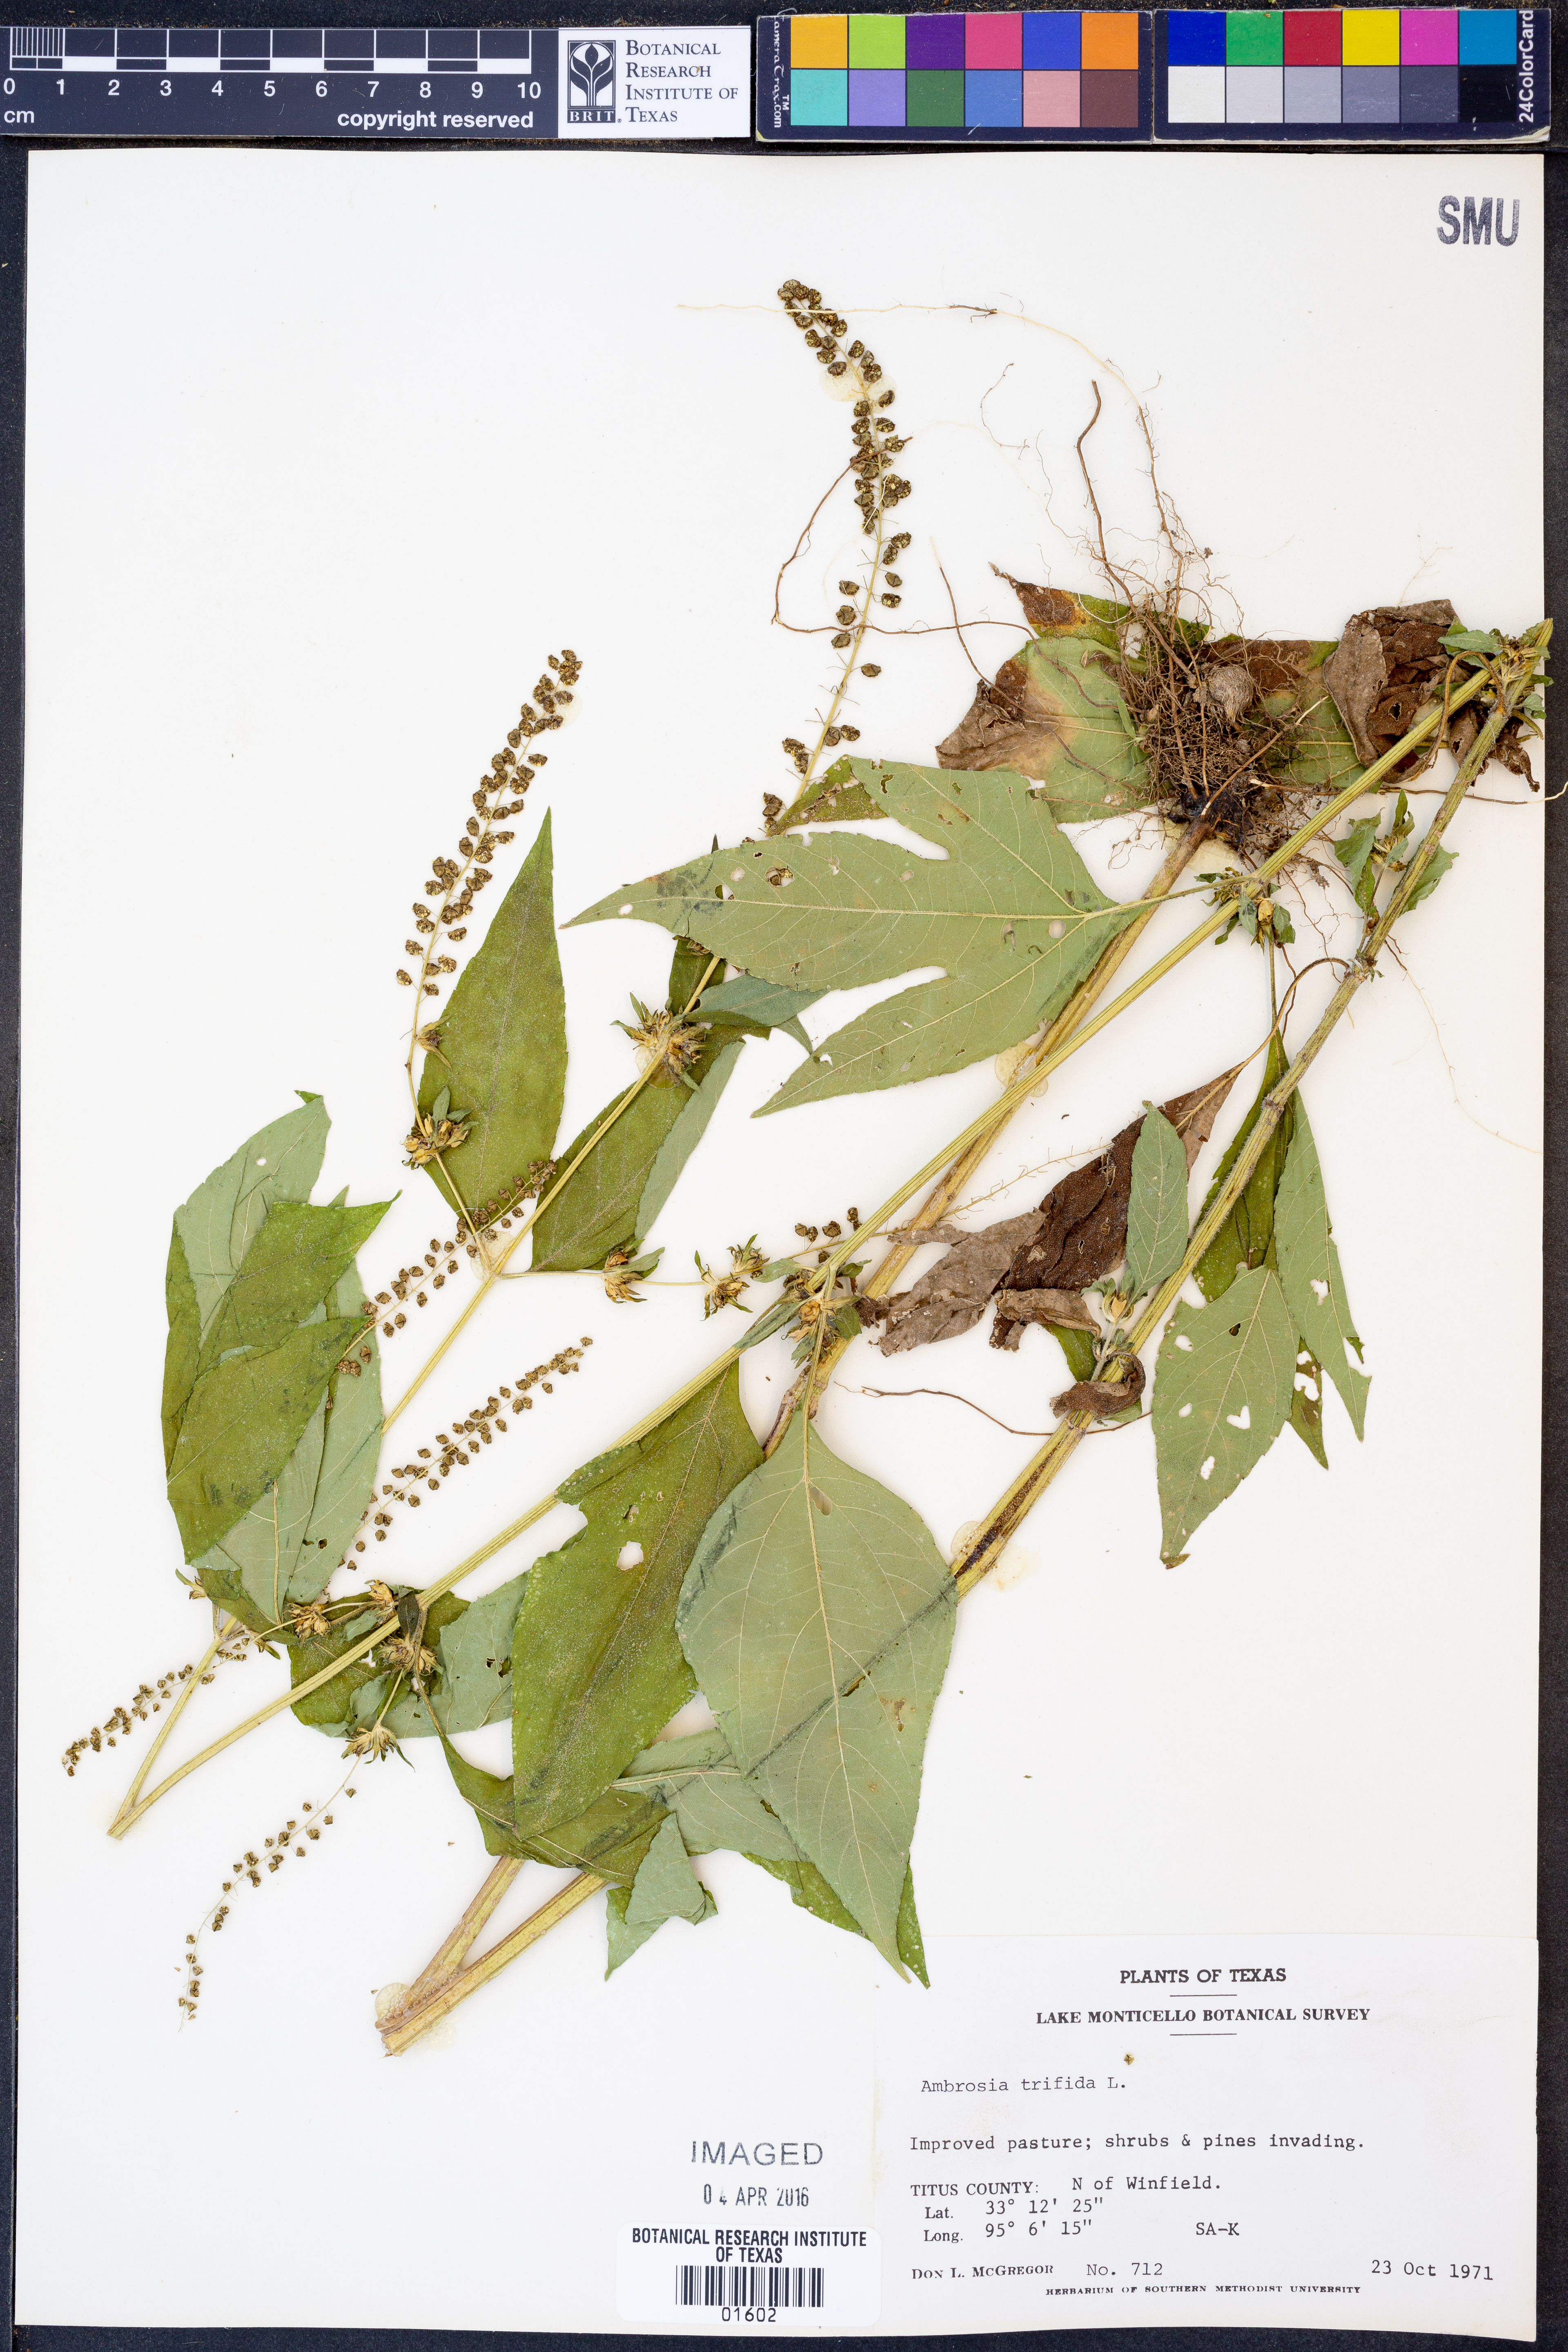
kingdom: Plantae
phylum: Tracheophyta
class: Magnoliopsida
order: Asterales
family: Asteraceae
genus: Ambrosia
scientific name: Ambrosia trifida
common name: Giant ragweed
